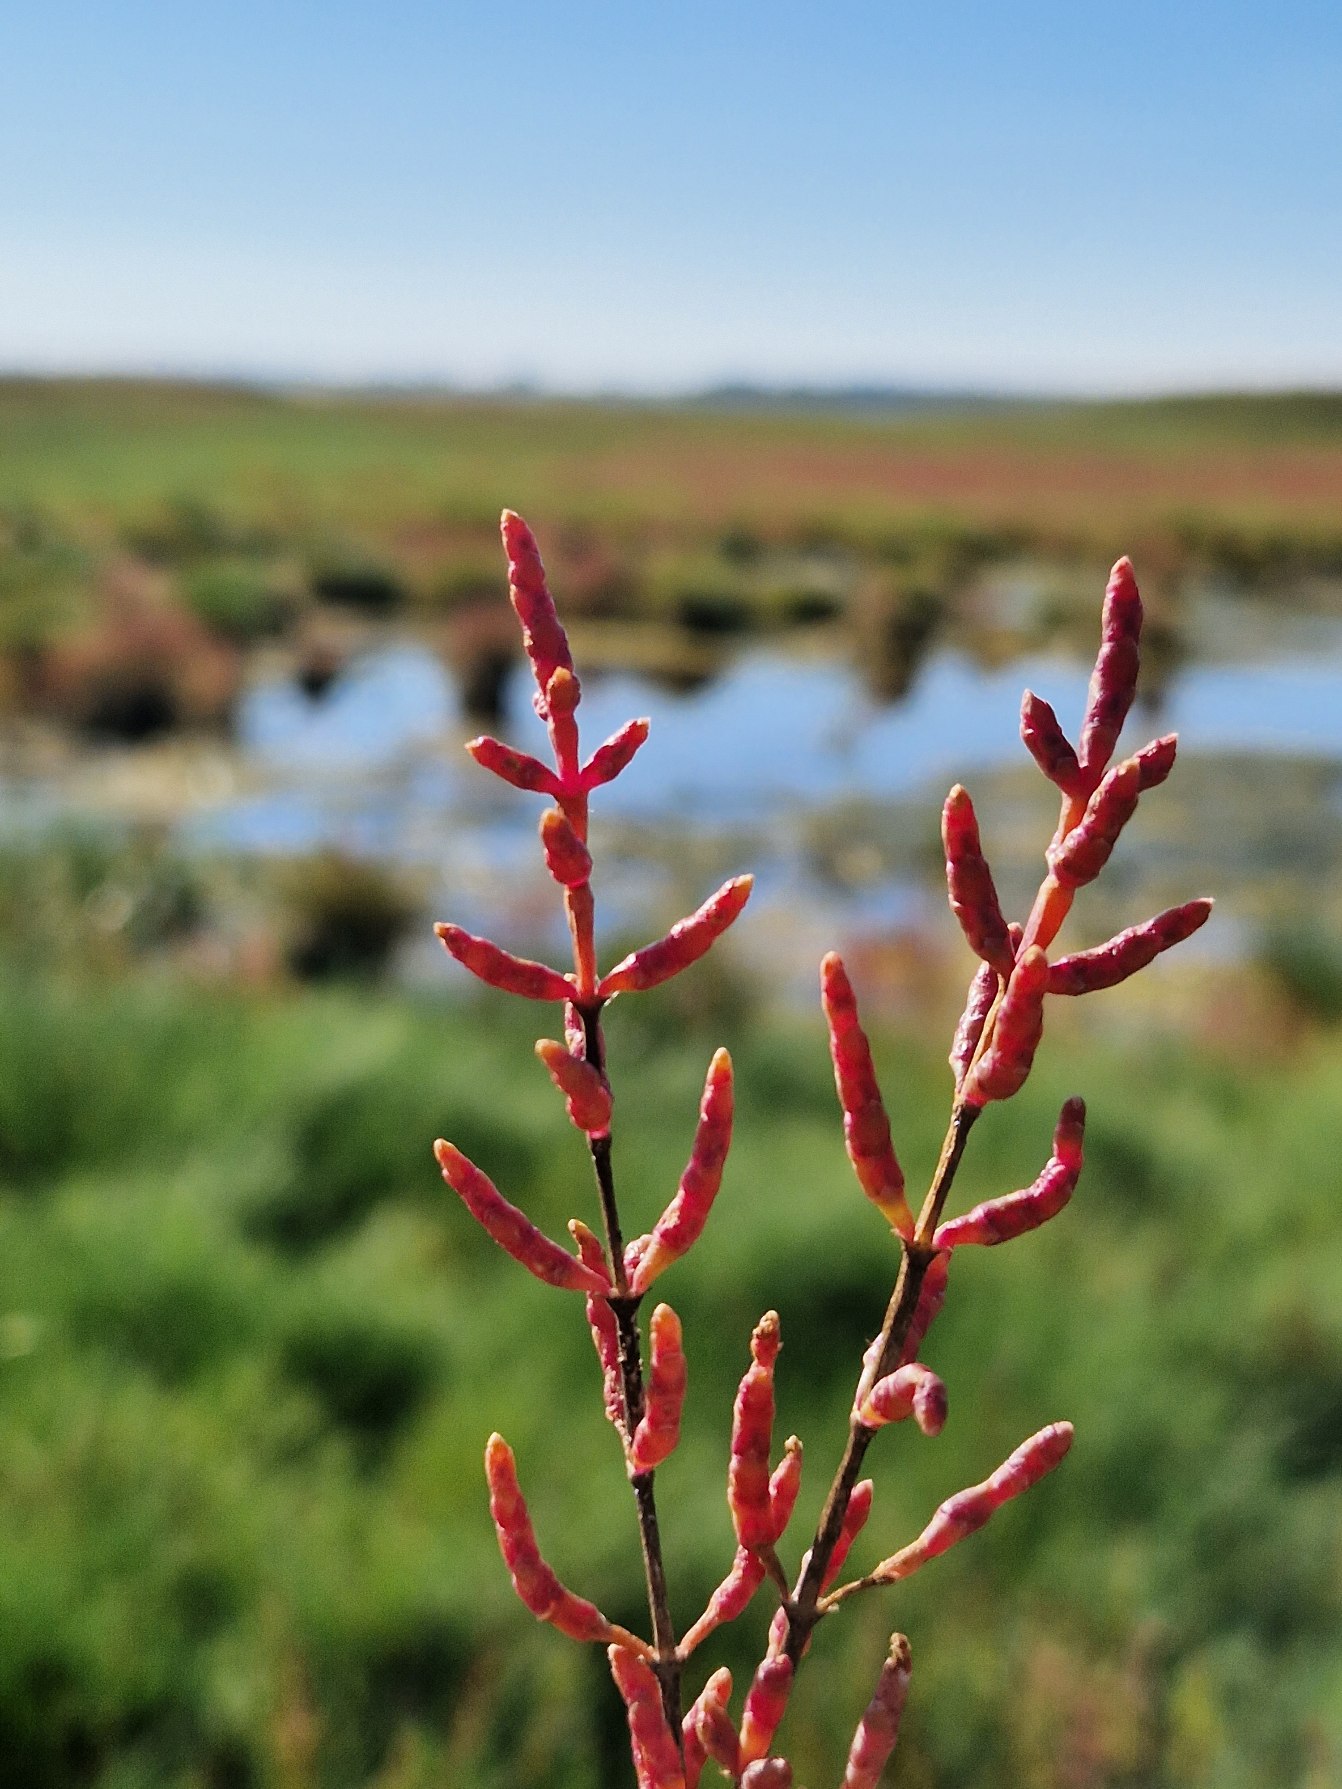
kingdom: Plantae
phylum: Tracheophyta
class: Magnoliopsida
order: Caryophyllales
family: Amaranthaceae
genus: Salicornia
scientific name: Salicornia europaea
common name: Almindelig salturt
